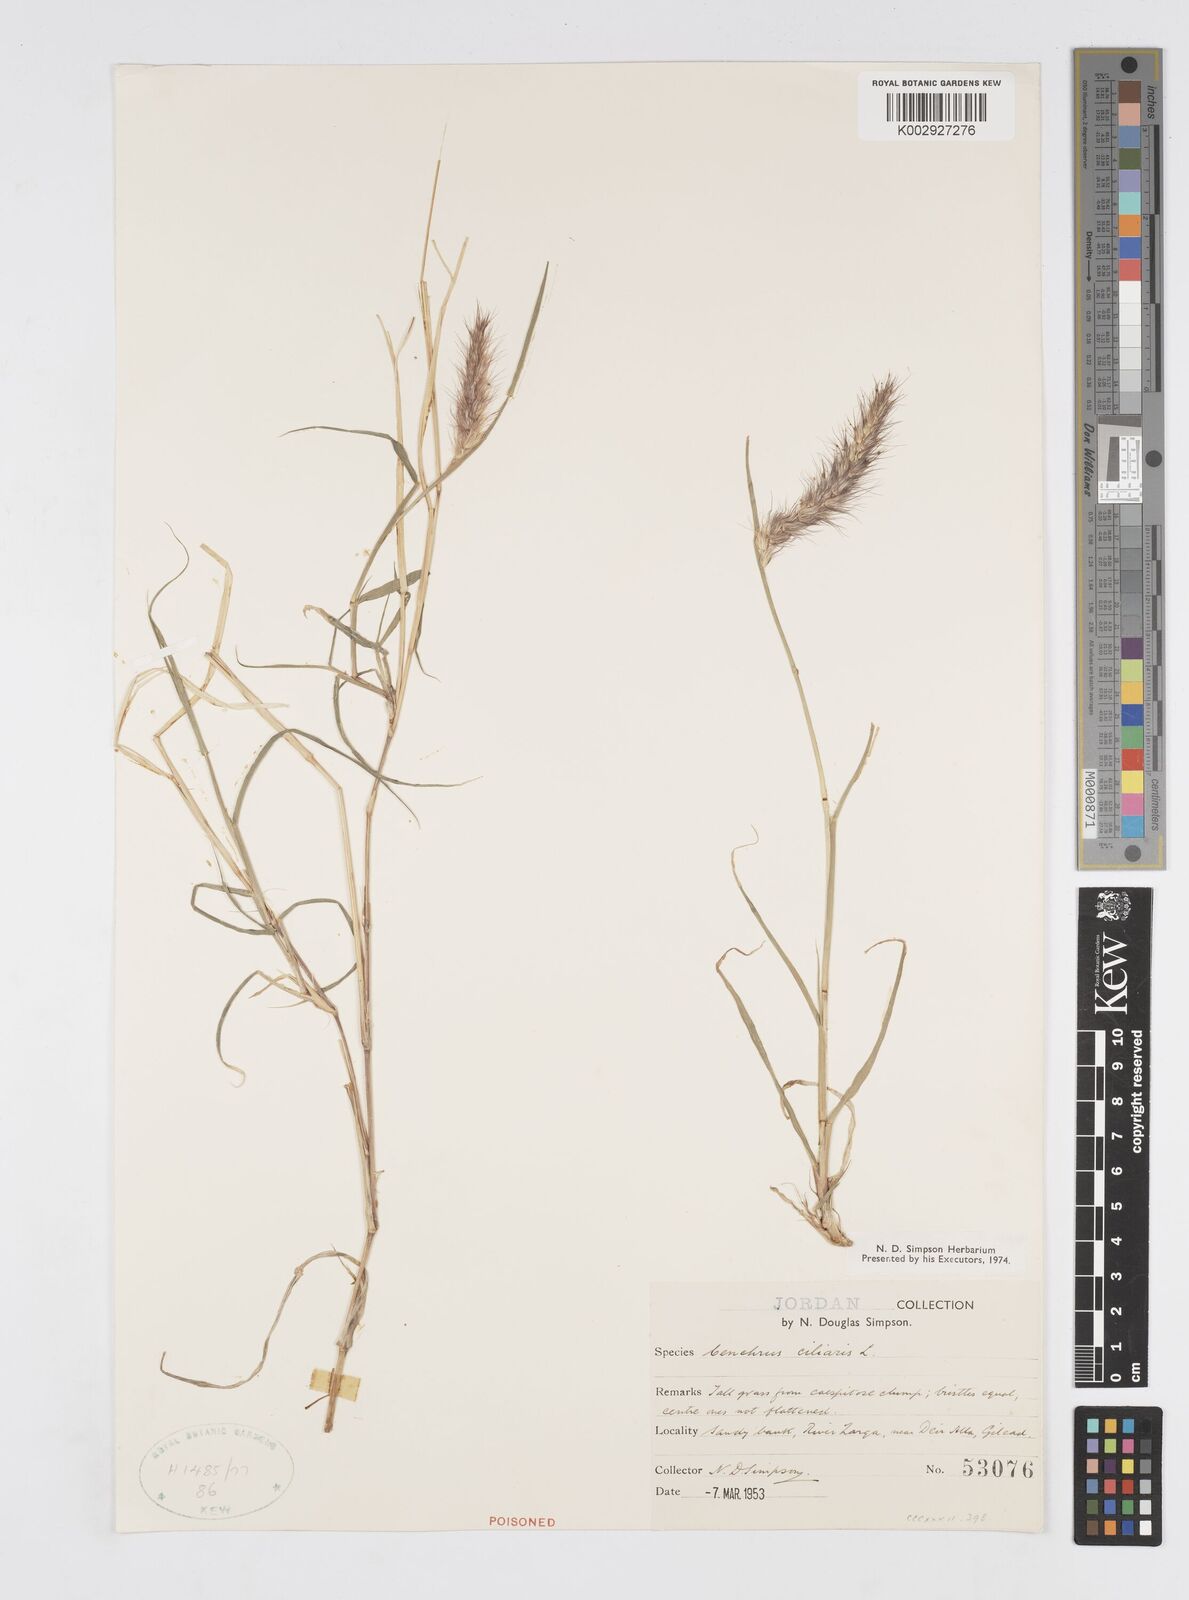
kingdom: Plantae
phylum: Tracheophyta
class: Liliopsida
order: Poales
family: Poaceae
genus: Cenchrus
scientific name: Cenchrus ciliaris
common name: Buffelgrass
